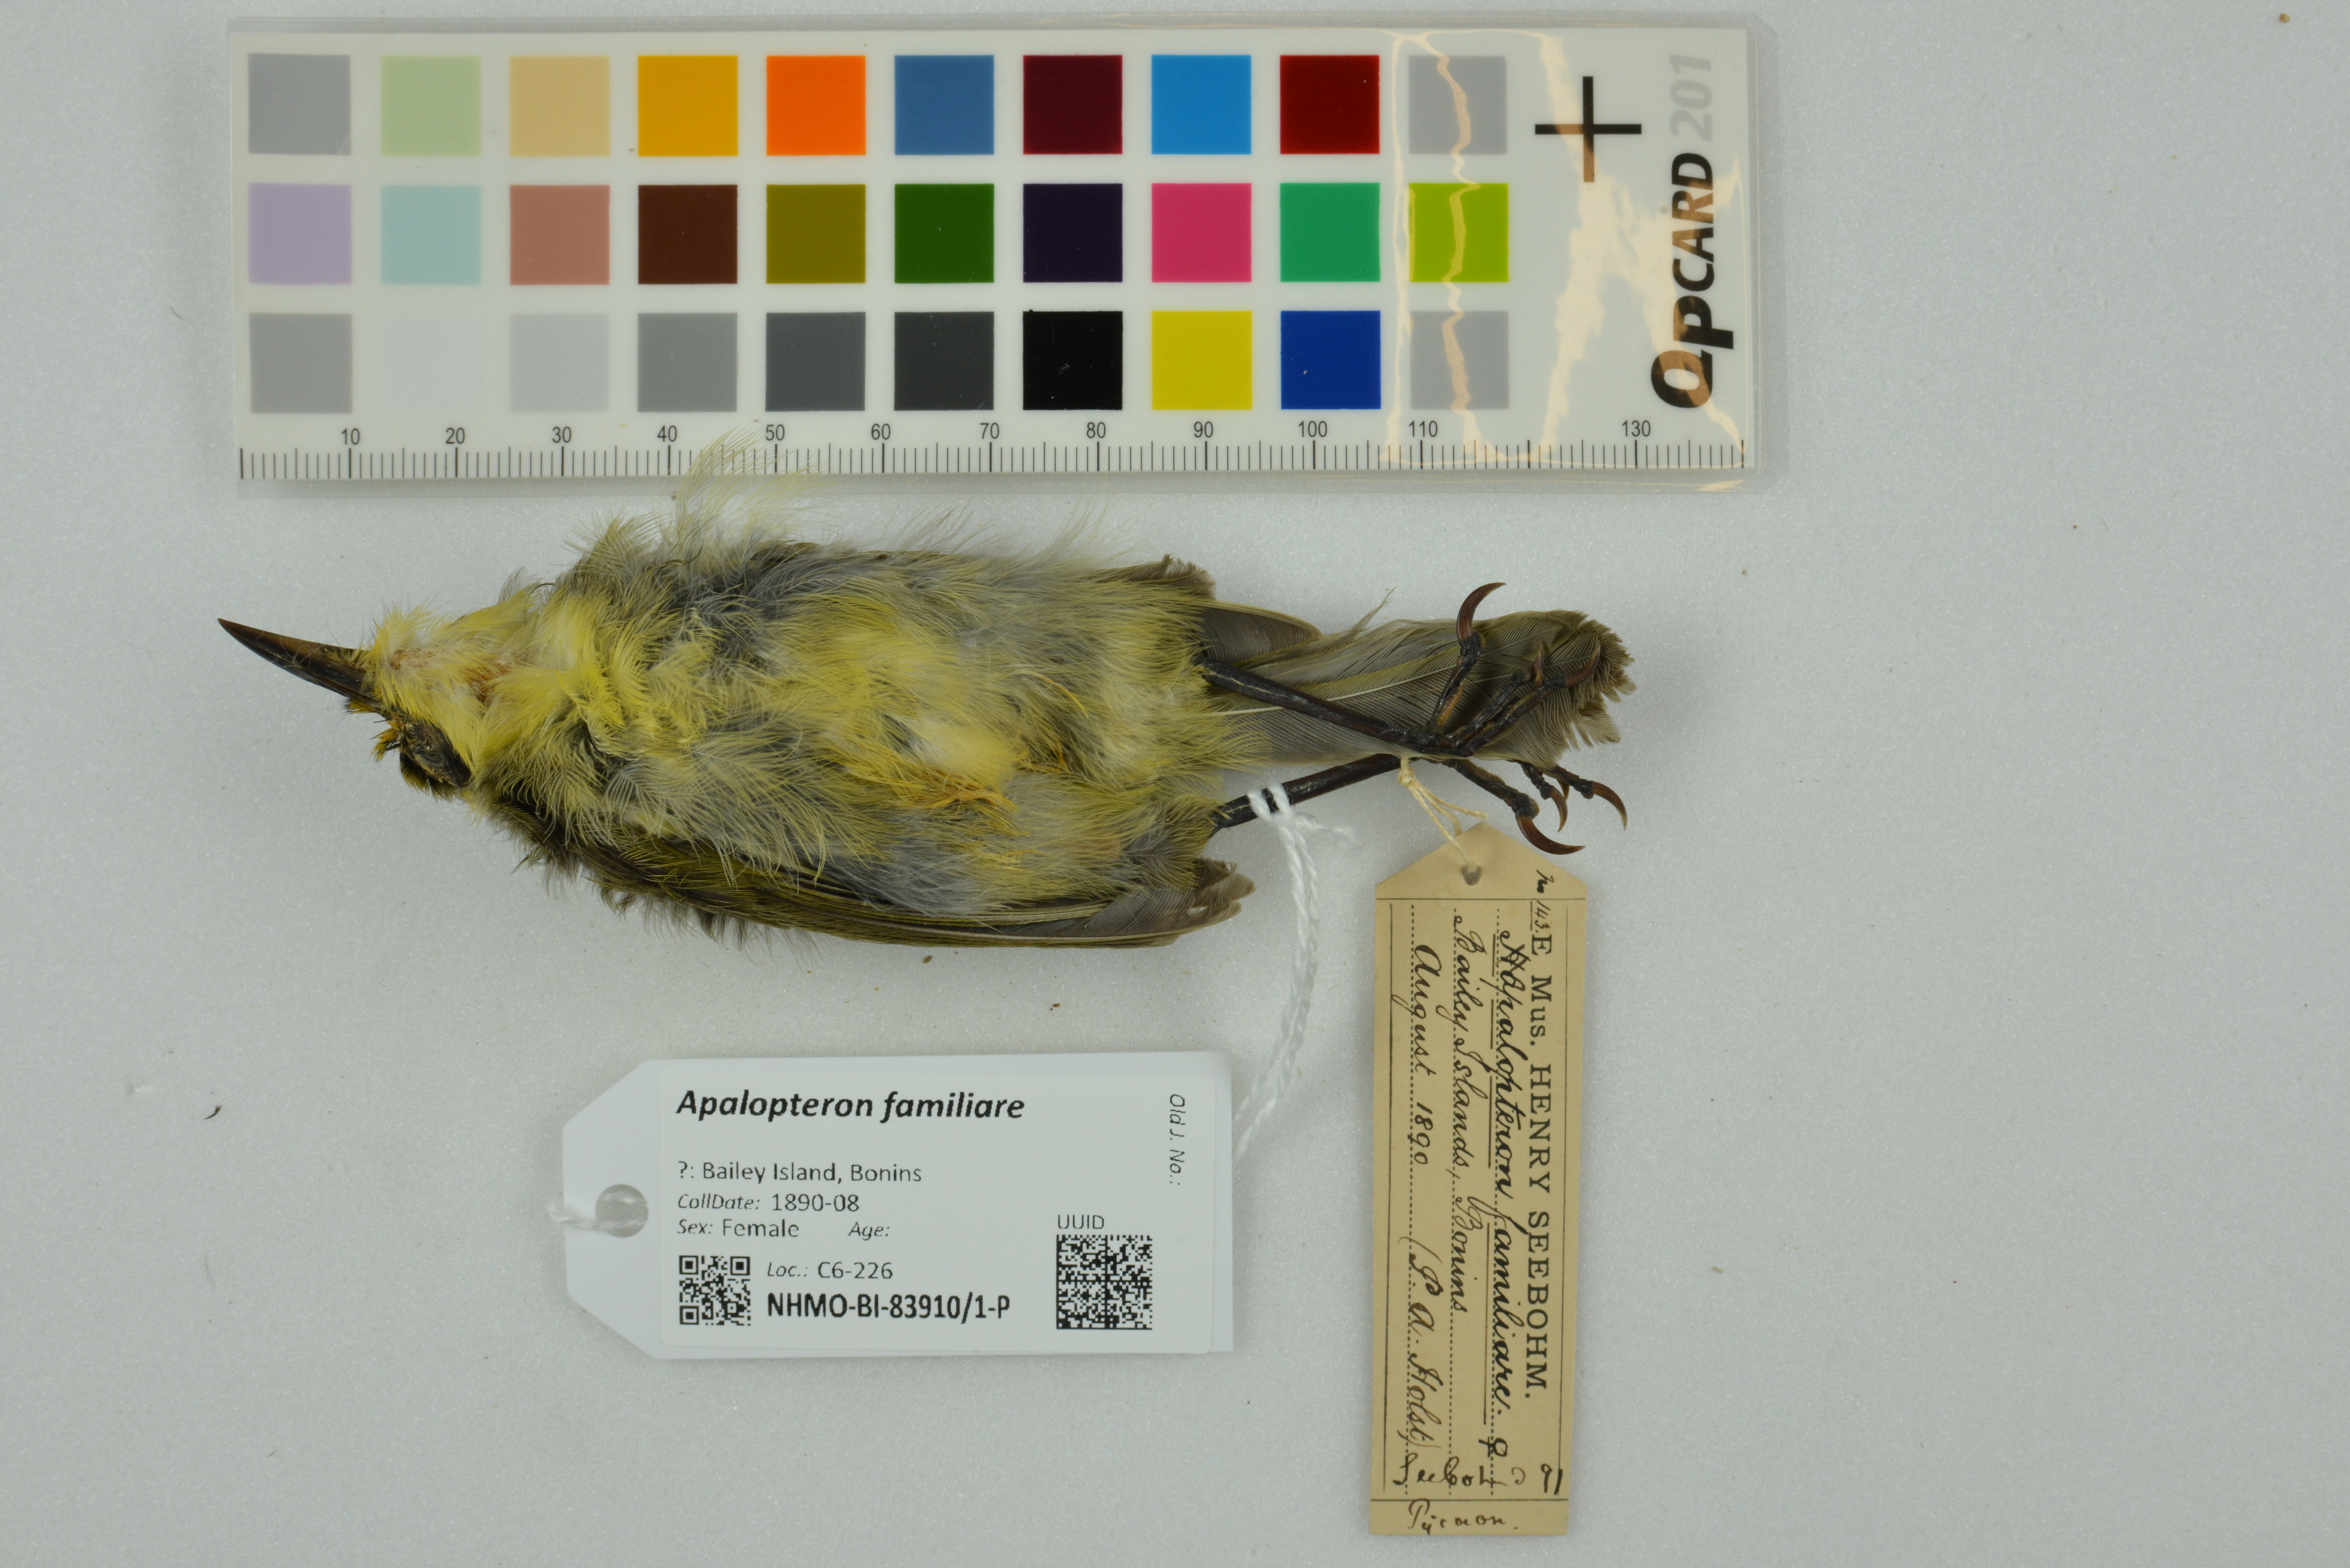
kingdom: Animalia
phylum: Chordata
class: Aves
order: Passeriformes
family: Zosteropidae
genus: Apalopteron
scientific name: Apalopteron familiare
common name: Bonin white-eye
